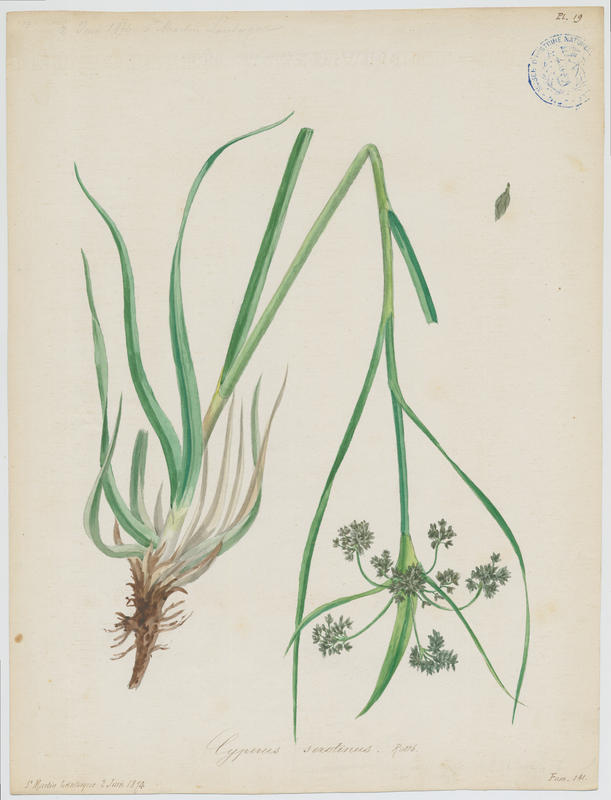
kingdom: Plantae
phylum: Tracheophyta
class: Liliopsida
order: Poales
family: Cyperaceae
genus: Cyperus
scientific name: Cyperus serotinus
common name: Tidalmarsh flatsedge
